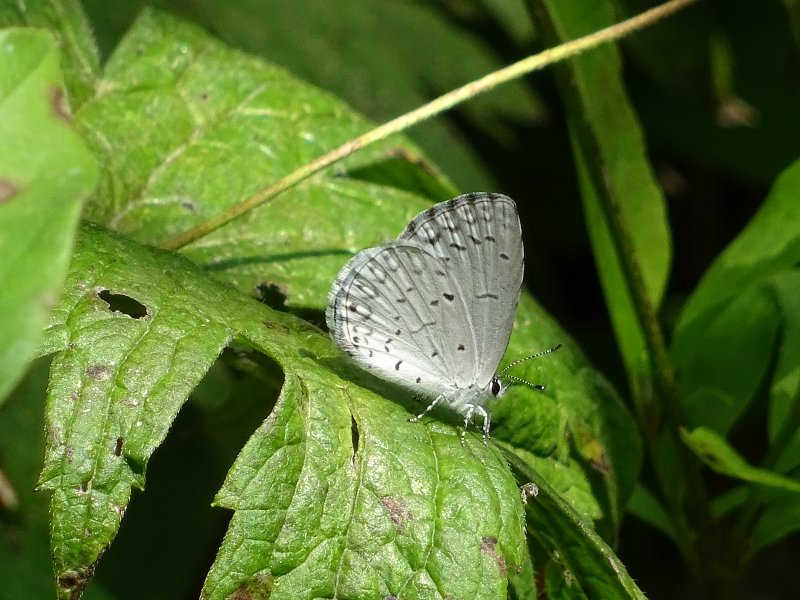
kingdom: Animalia
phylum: Arthropoda
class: Insecta
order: Lepidoptera
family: Lycaenidae
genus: Celastrina
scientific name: Celastrina
